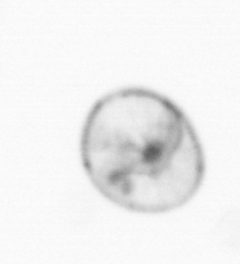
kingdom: Chromista
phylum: Myzozoa
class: Dinophyceae
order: Noctilucales
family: Noctilucaceae
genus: Noctiluca
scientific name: Noctiluca scintillans
